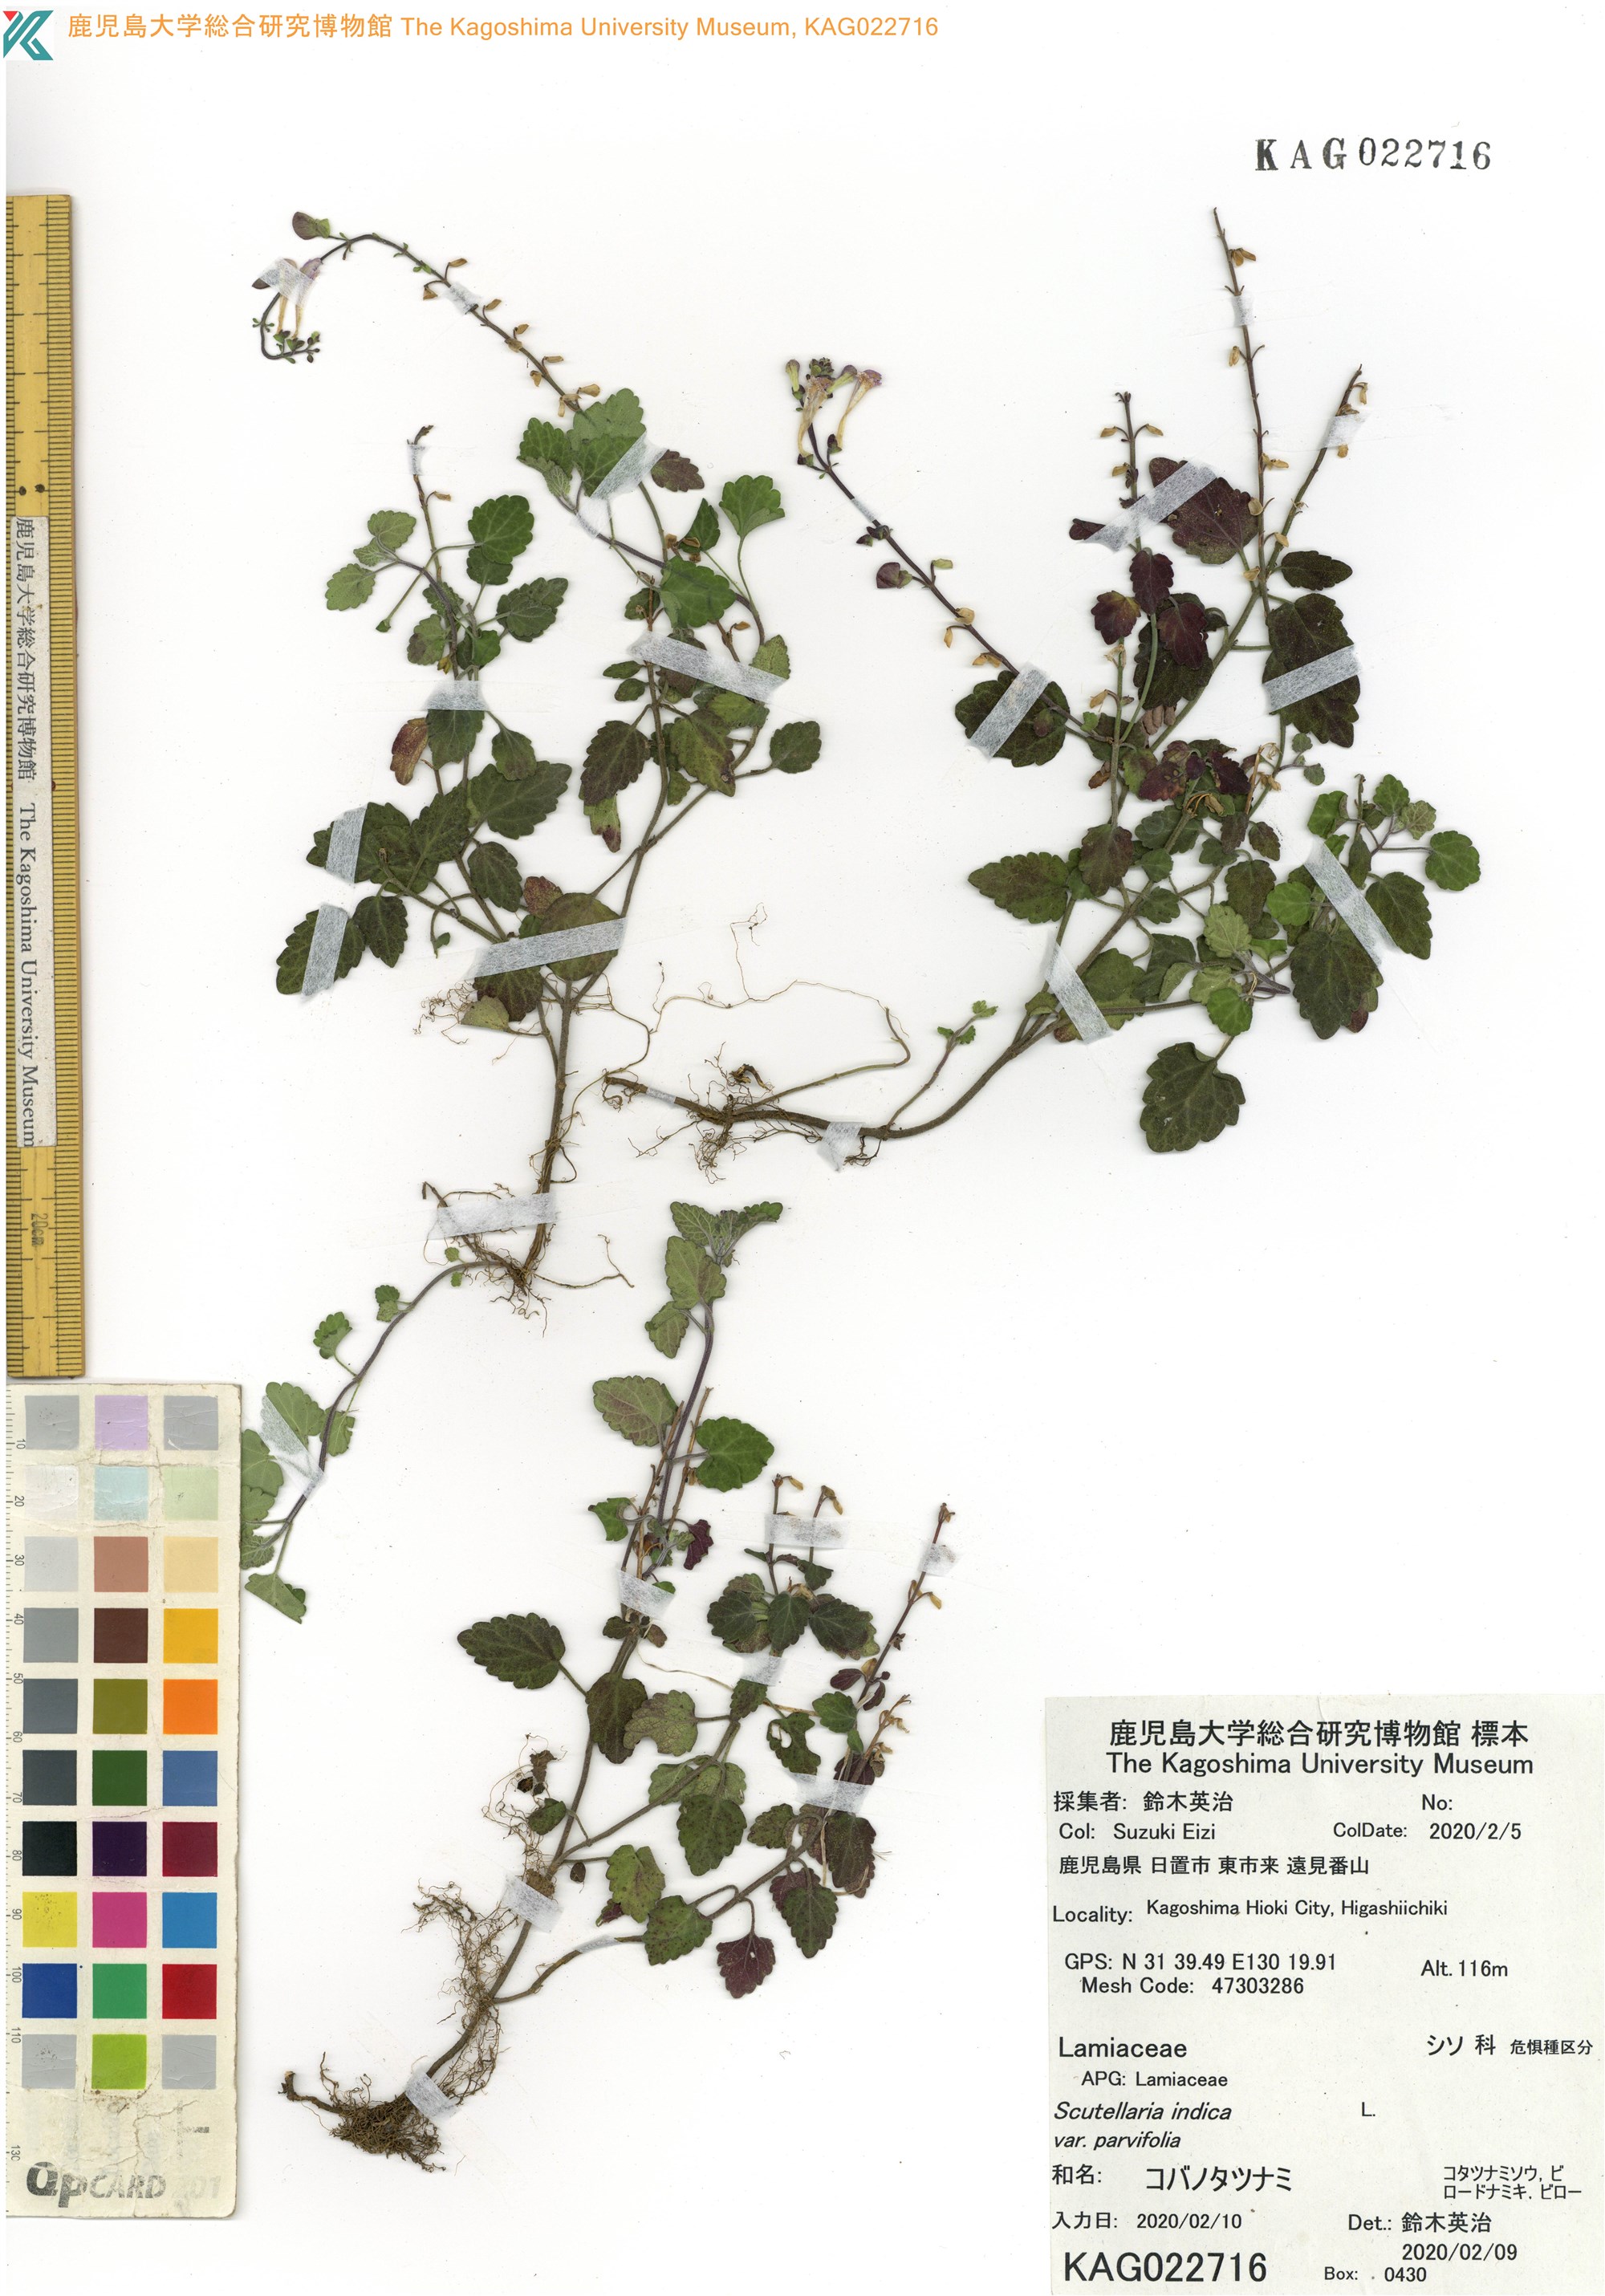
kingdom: Plantae
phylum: Tracheophyta
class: Magnoliopsida
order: Lamiales
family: Lamiaceae
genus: Scutellaria
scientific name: Scutellaria indica
